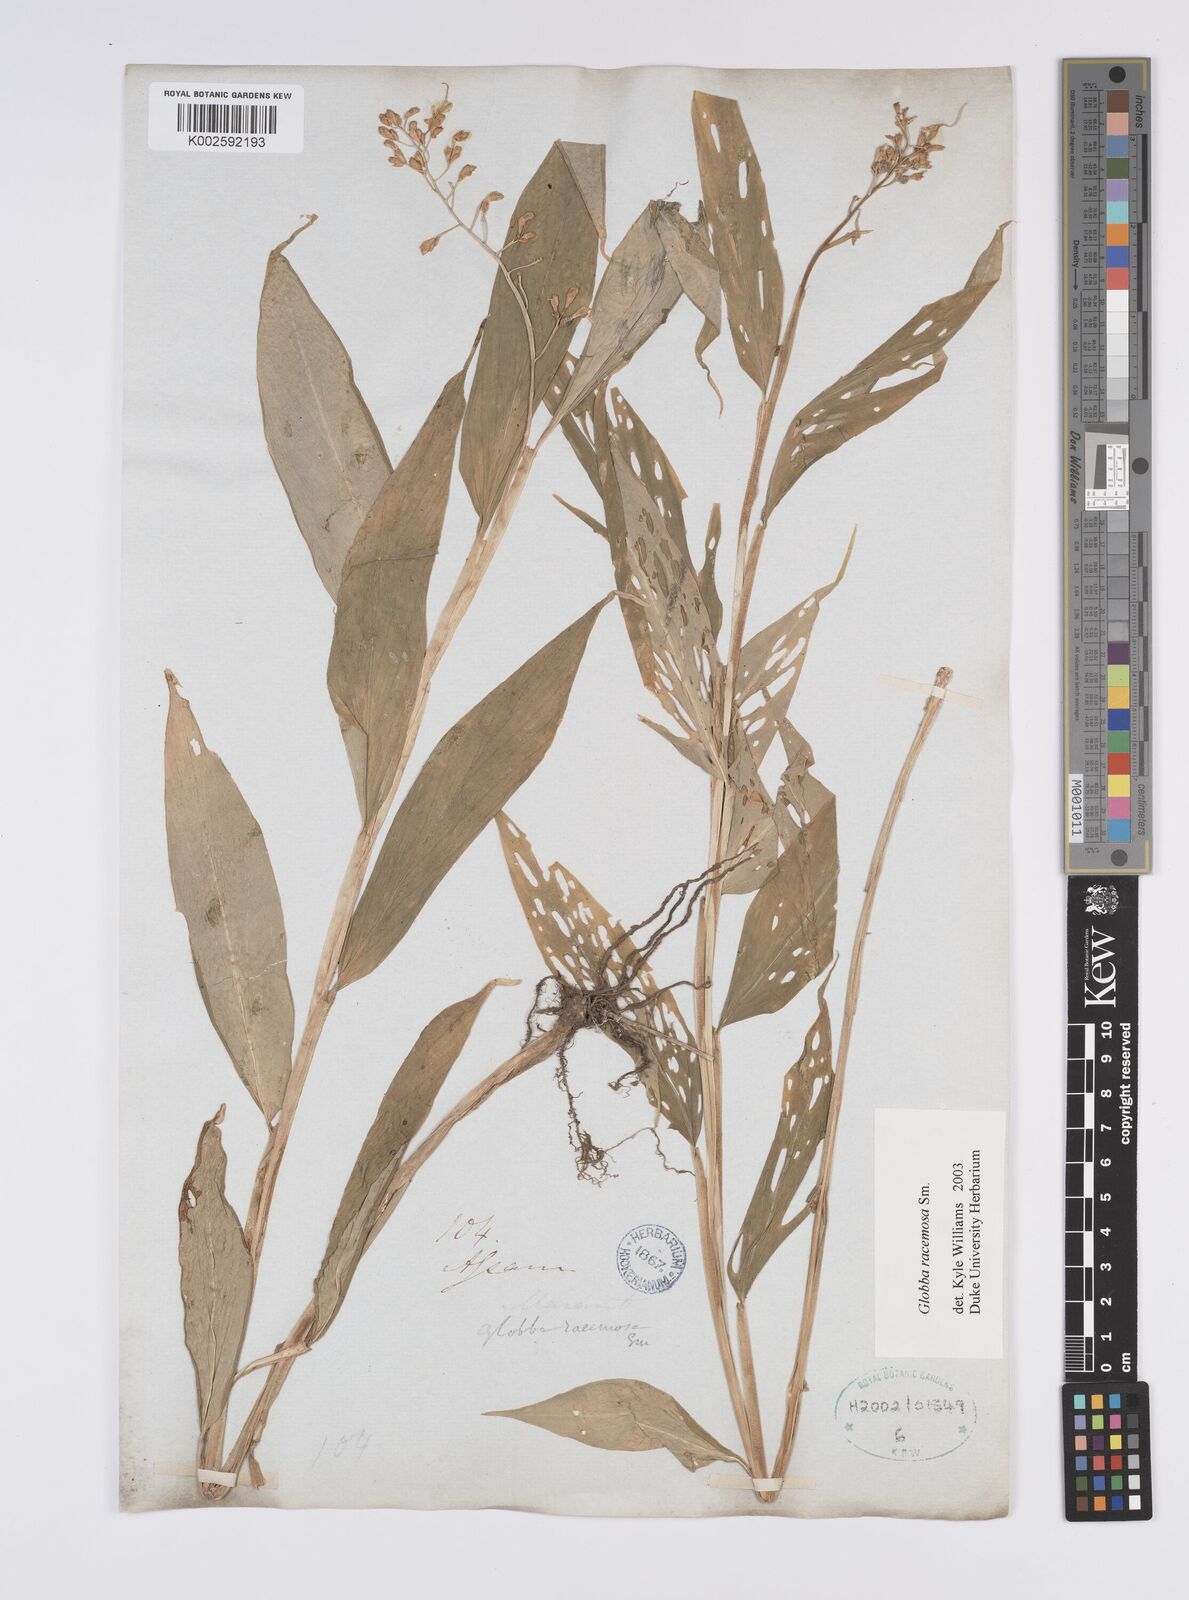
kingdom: Plantae
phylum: Tracheophyta
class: Liliopsida
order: Zingiberales
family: Zingiberaceae
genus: Globba
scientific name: Globba racemosa
